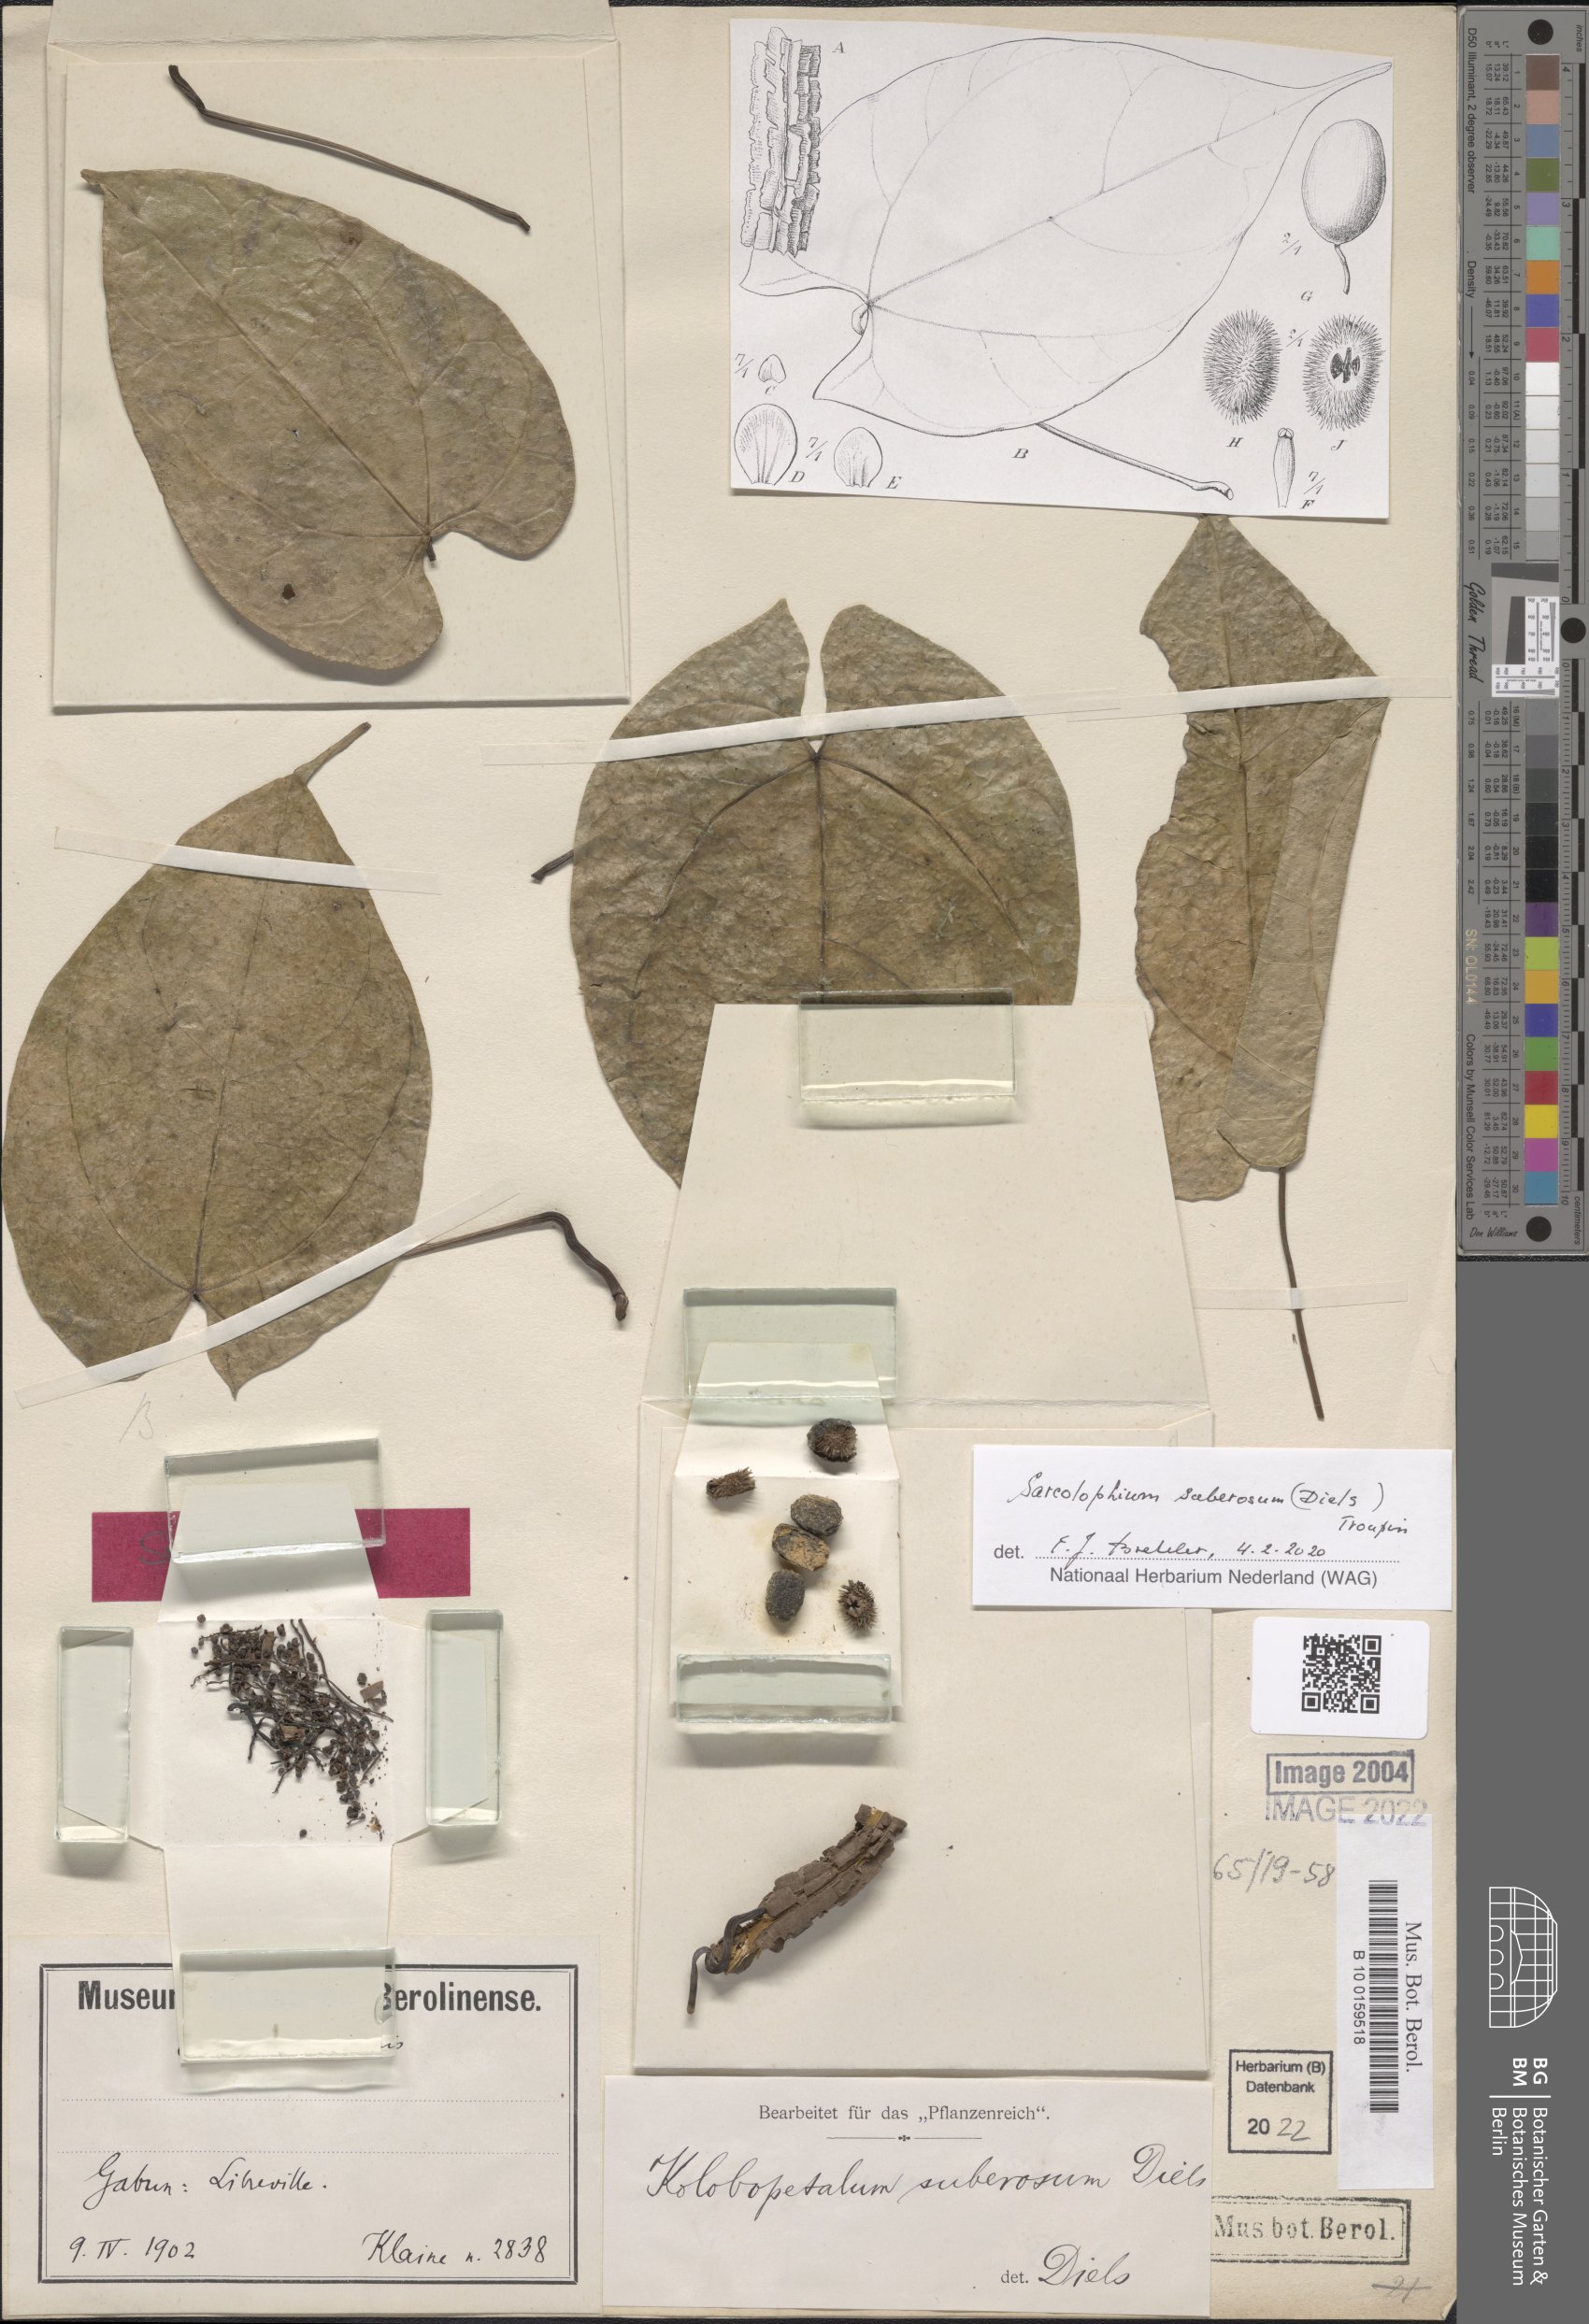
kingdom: Plantae
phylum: Tracheophyta
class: Magnoliopsida
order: Ranunculales
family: Menispermaceae
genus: Sarcolophium
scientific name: Sarcolophium suberosum
